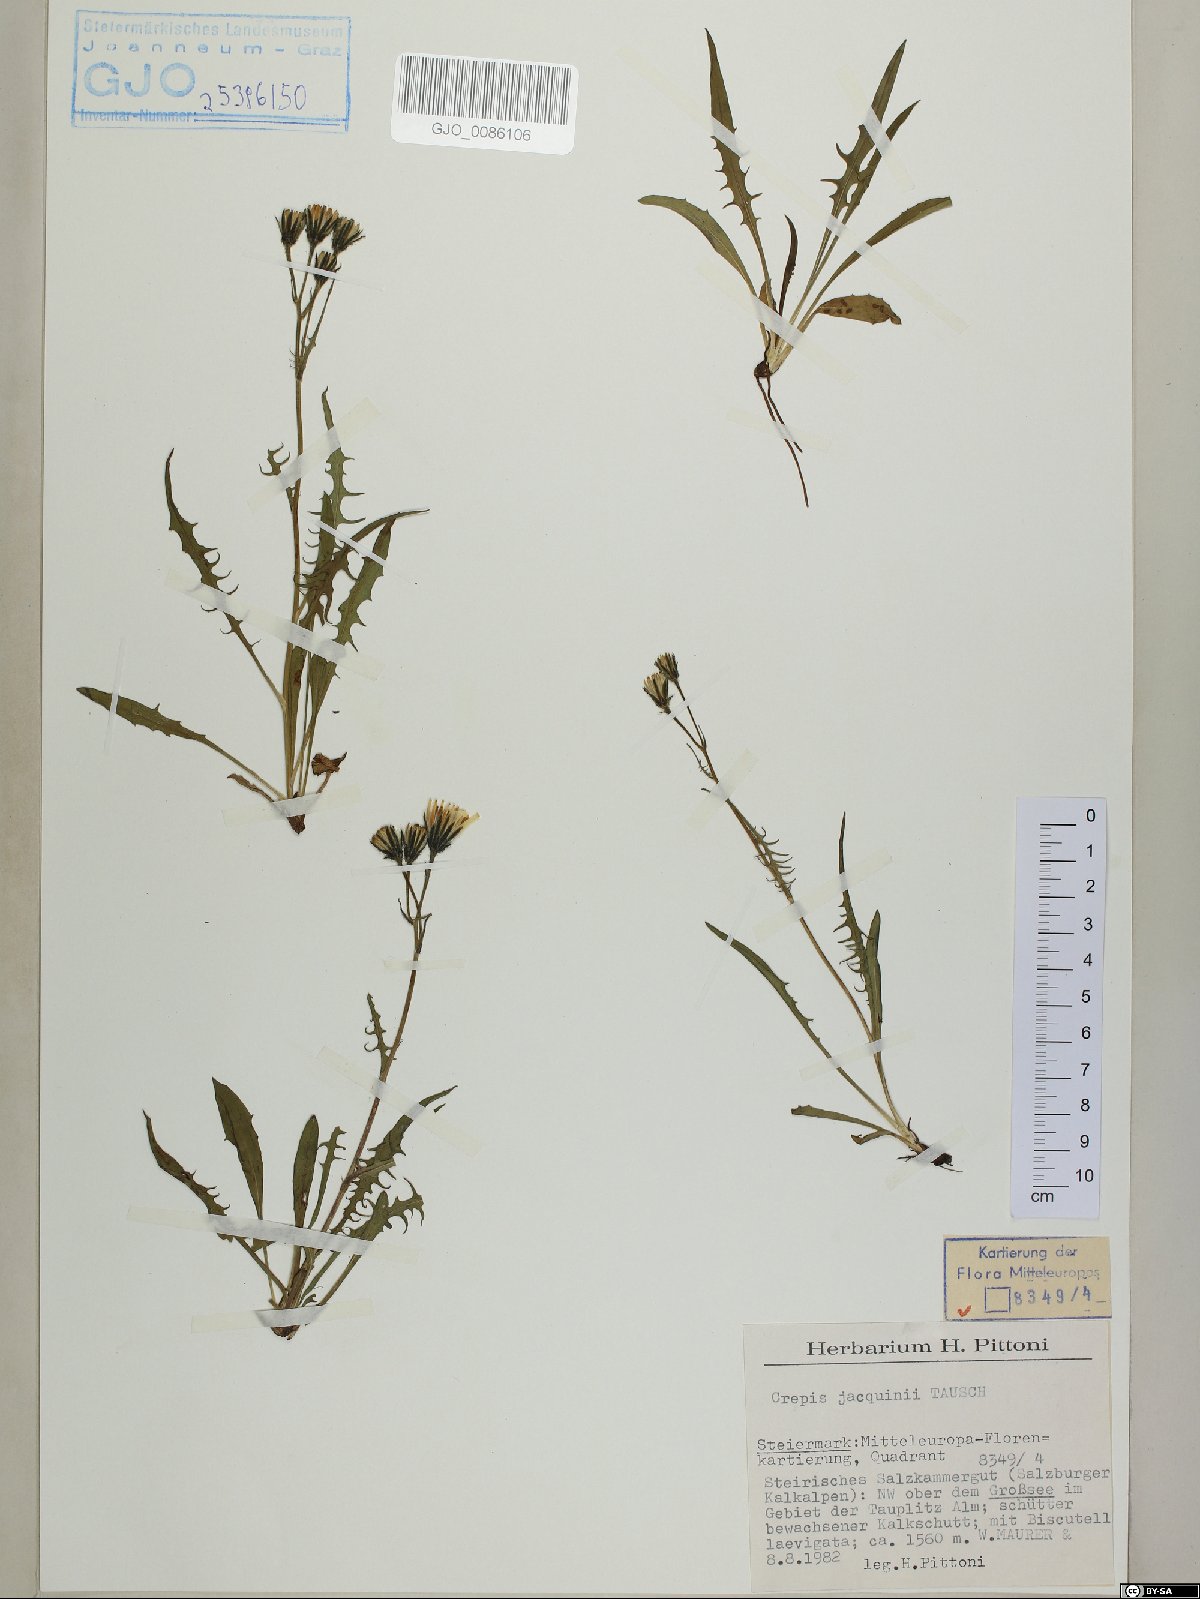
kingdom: Plantae
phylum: Tracheophyta
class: Magnoliopsida
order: Asterales
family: Asteraceae
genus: Crepis
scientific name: Crepis jacquinii
